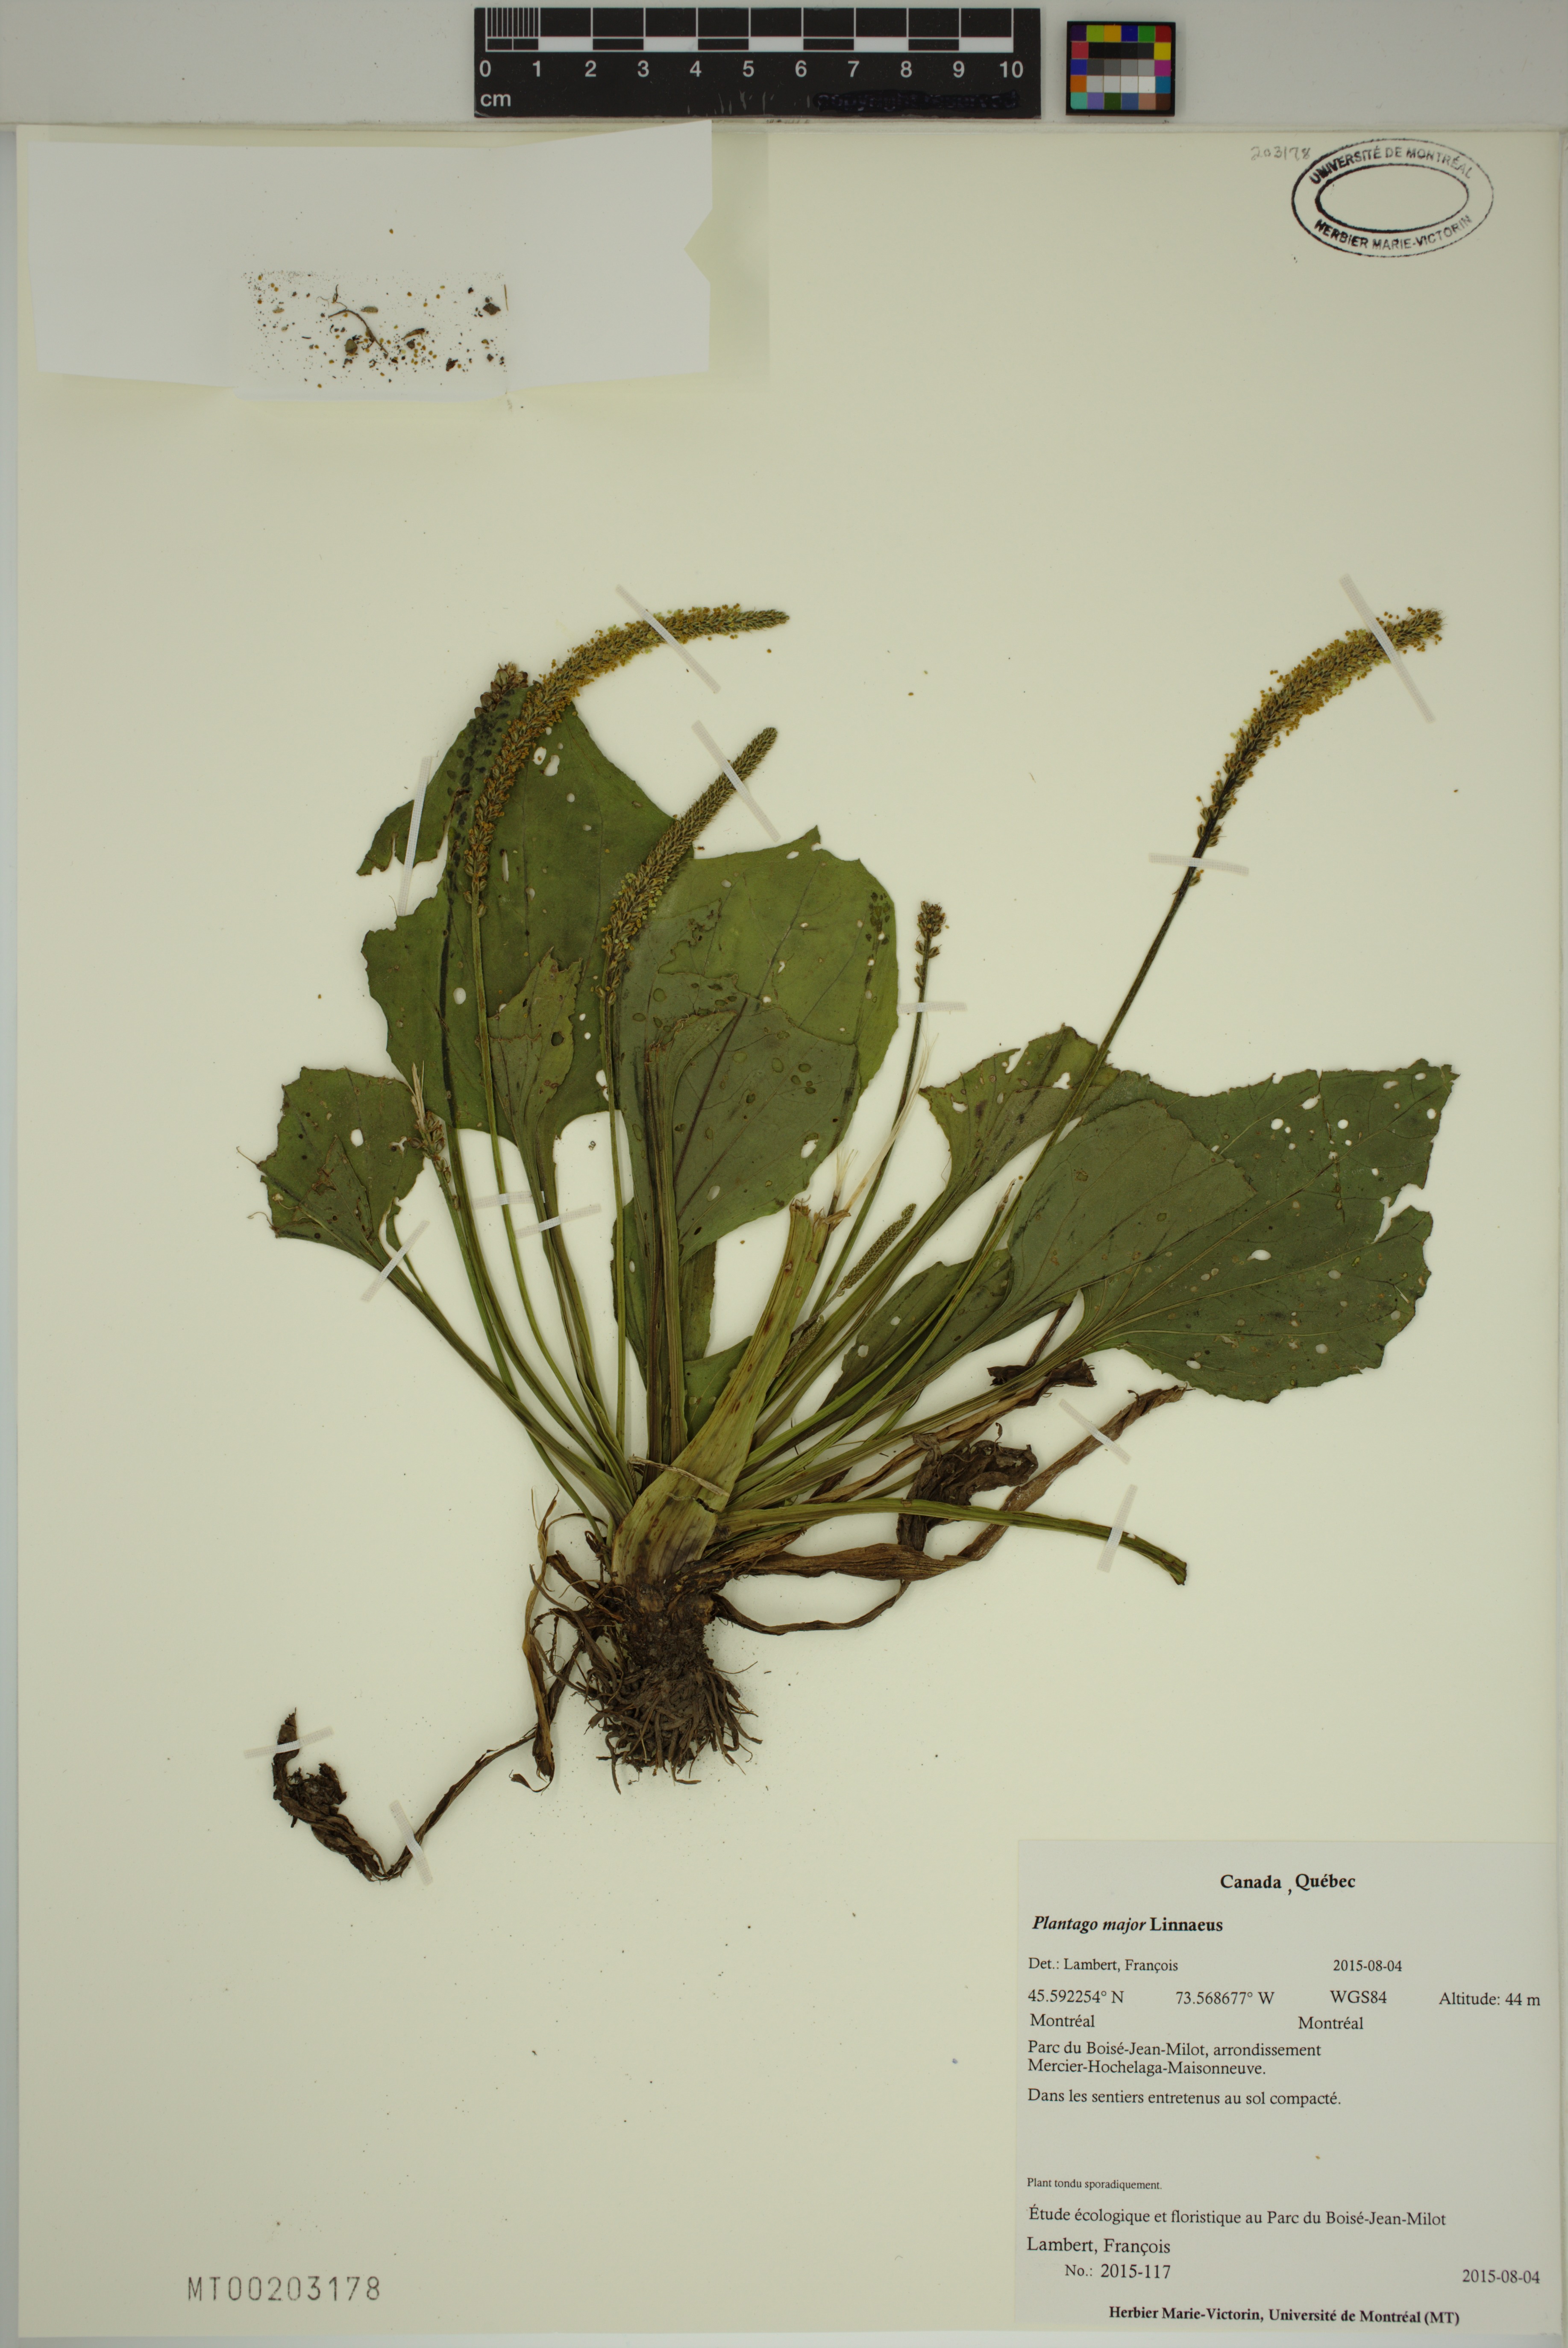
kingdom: Plantae
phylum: Tracheophyta
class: Magnoliopsida
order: Lamiales
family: Plantaginaceae
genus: Plantago
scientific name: Plantago major
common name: Common plantain
